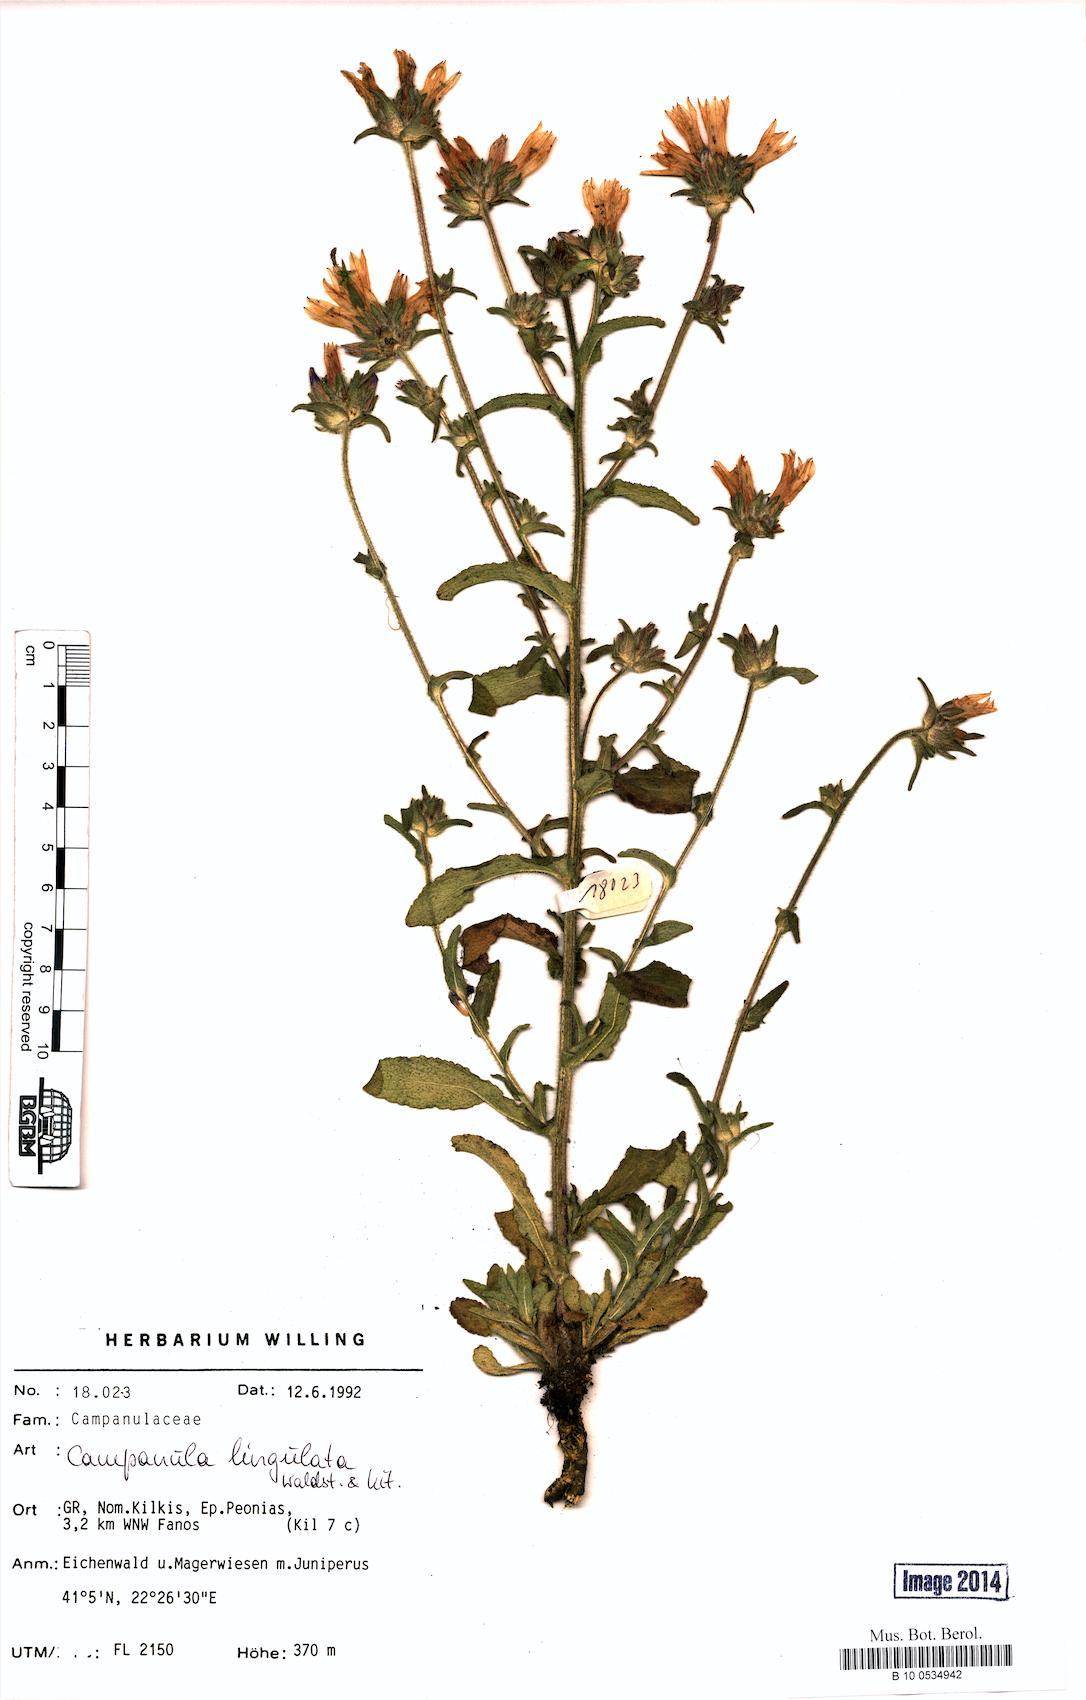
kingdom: Plantae
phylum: Tracheophyta
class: Magnoliopsida
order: Asterales
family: Campanulaceae
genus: Campanula
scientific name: Campanula lingulata
